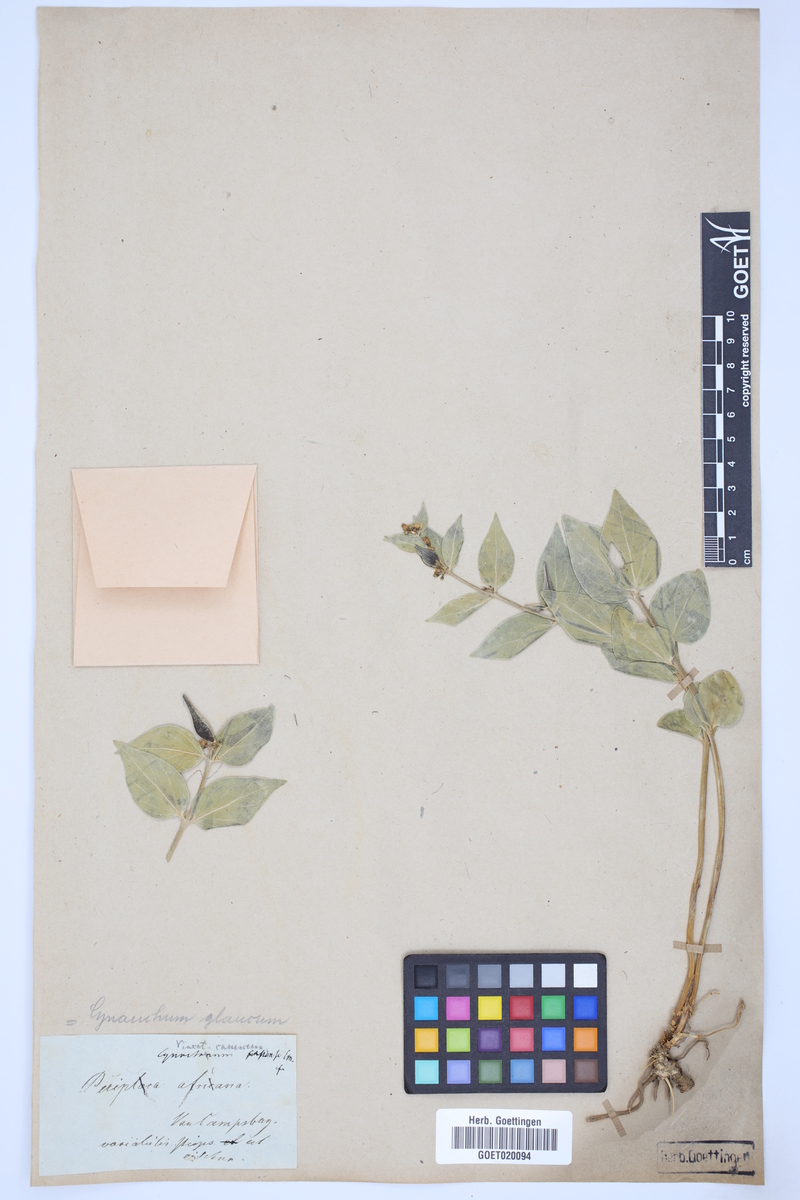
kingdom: Plantae
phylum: Tracheophyta
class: Magnoliopsida
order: Gentianales
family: Apocynaceae
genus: Vincetoxicum
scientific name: Vincetoxicum canescens
